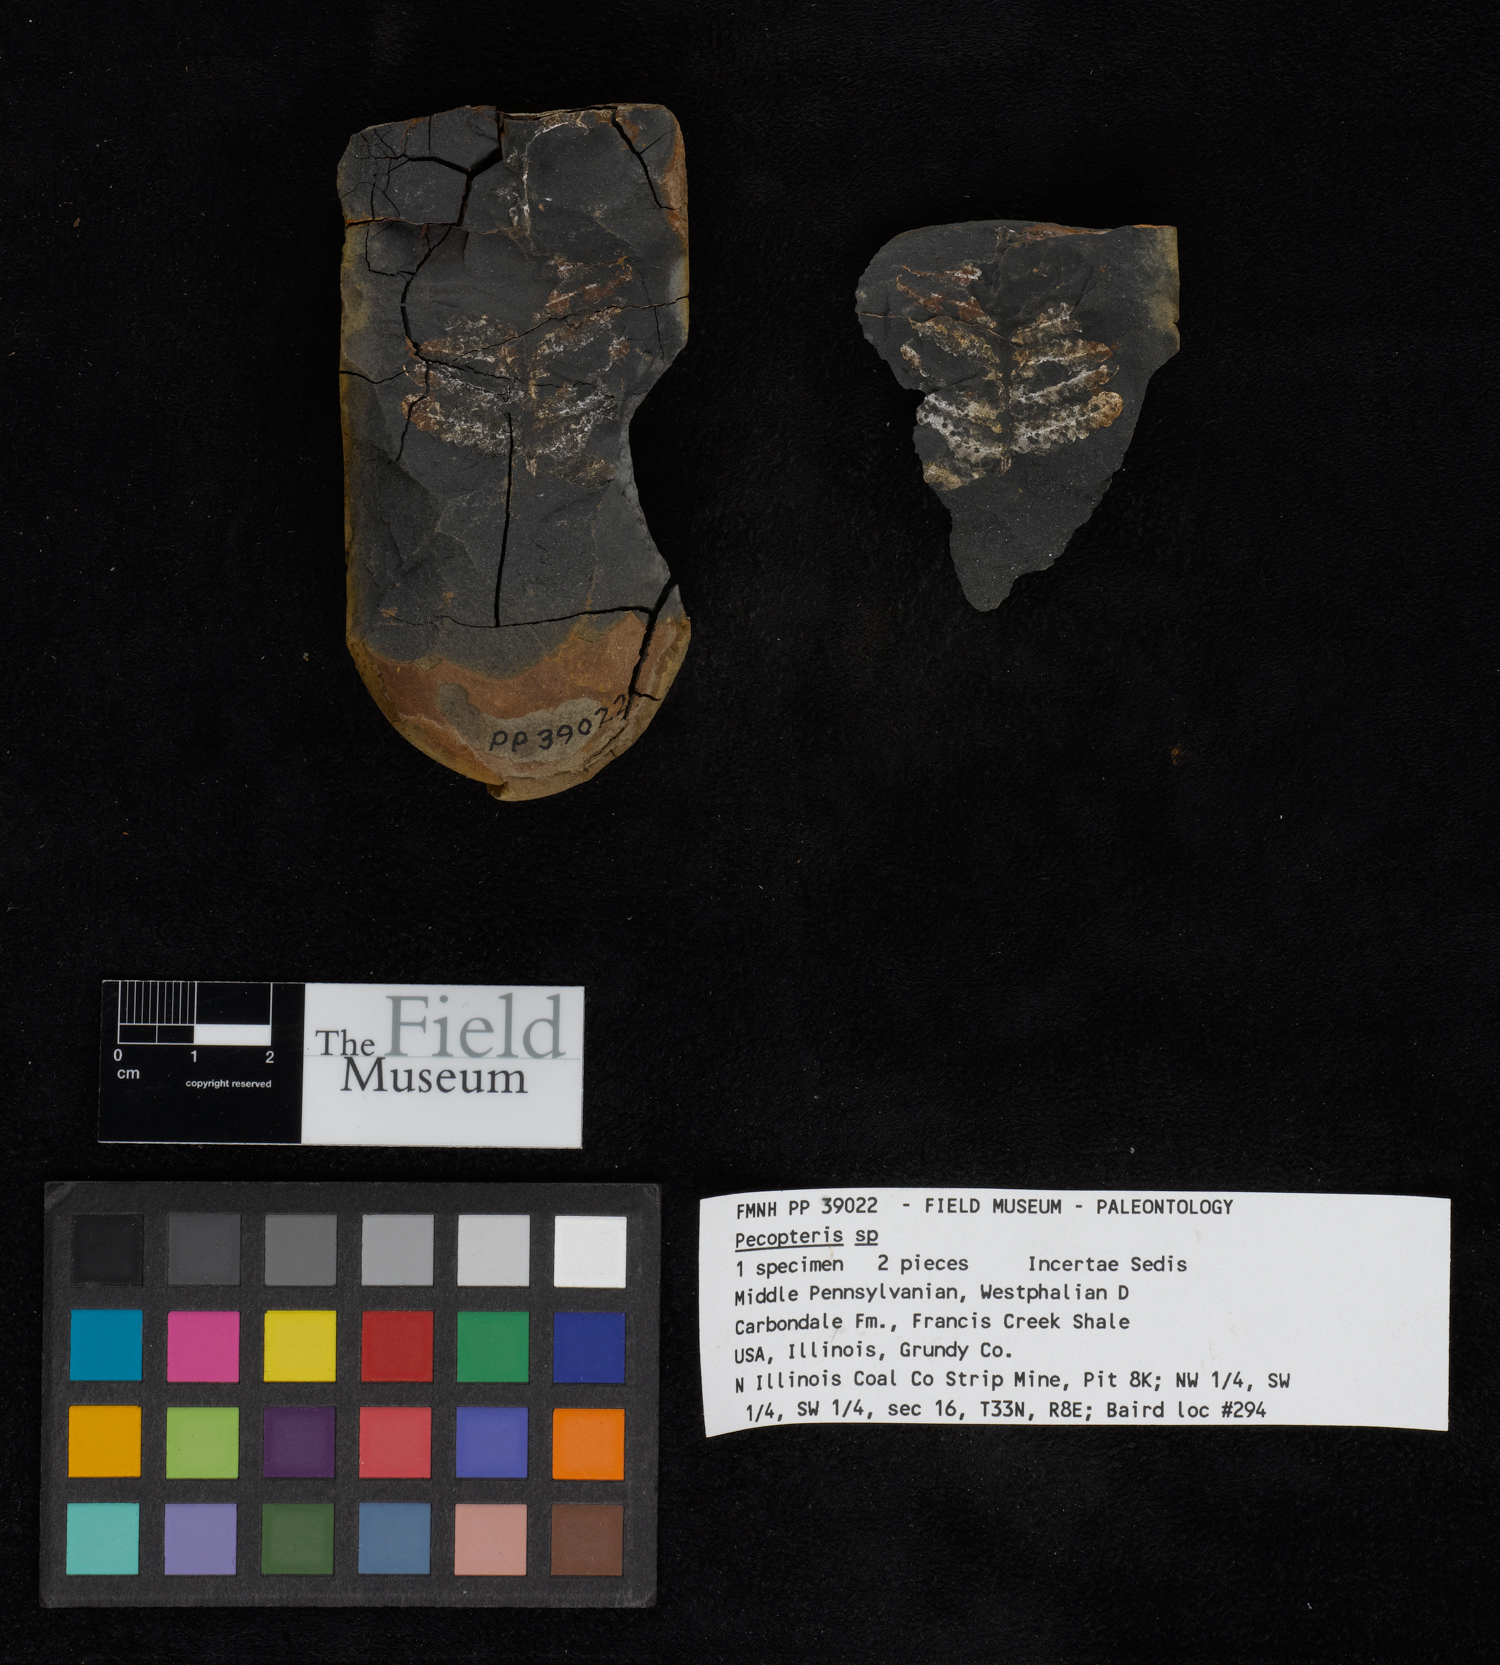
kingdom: Plantae
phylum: Tracheophyta
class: Polypodiopsida
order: Marattiales
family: Asterothecaceae
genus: Pecopteris
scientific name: Pecopteris
